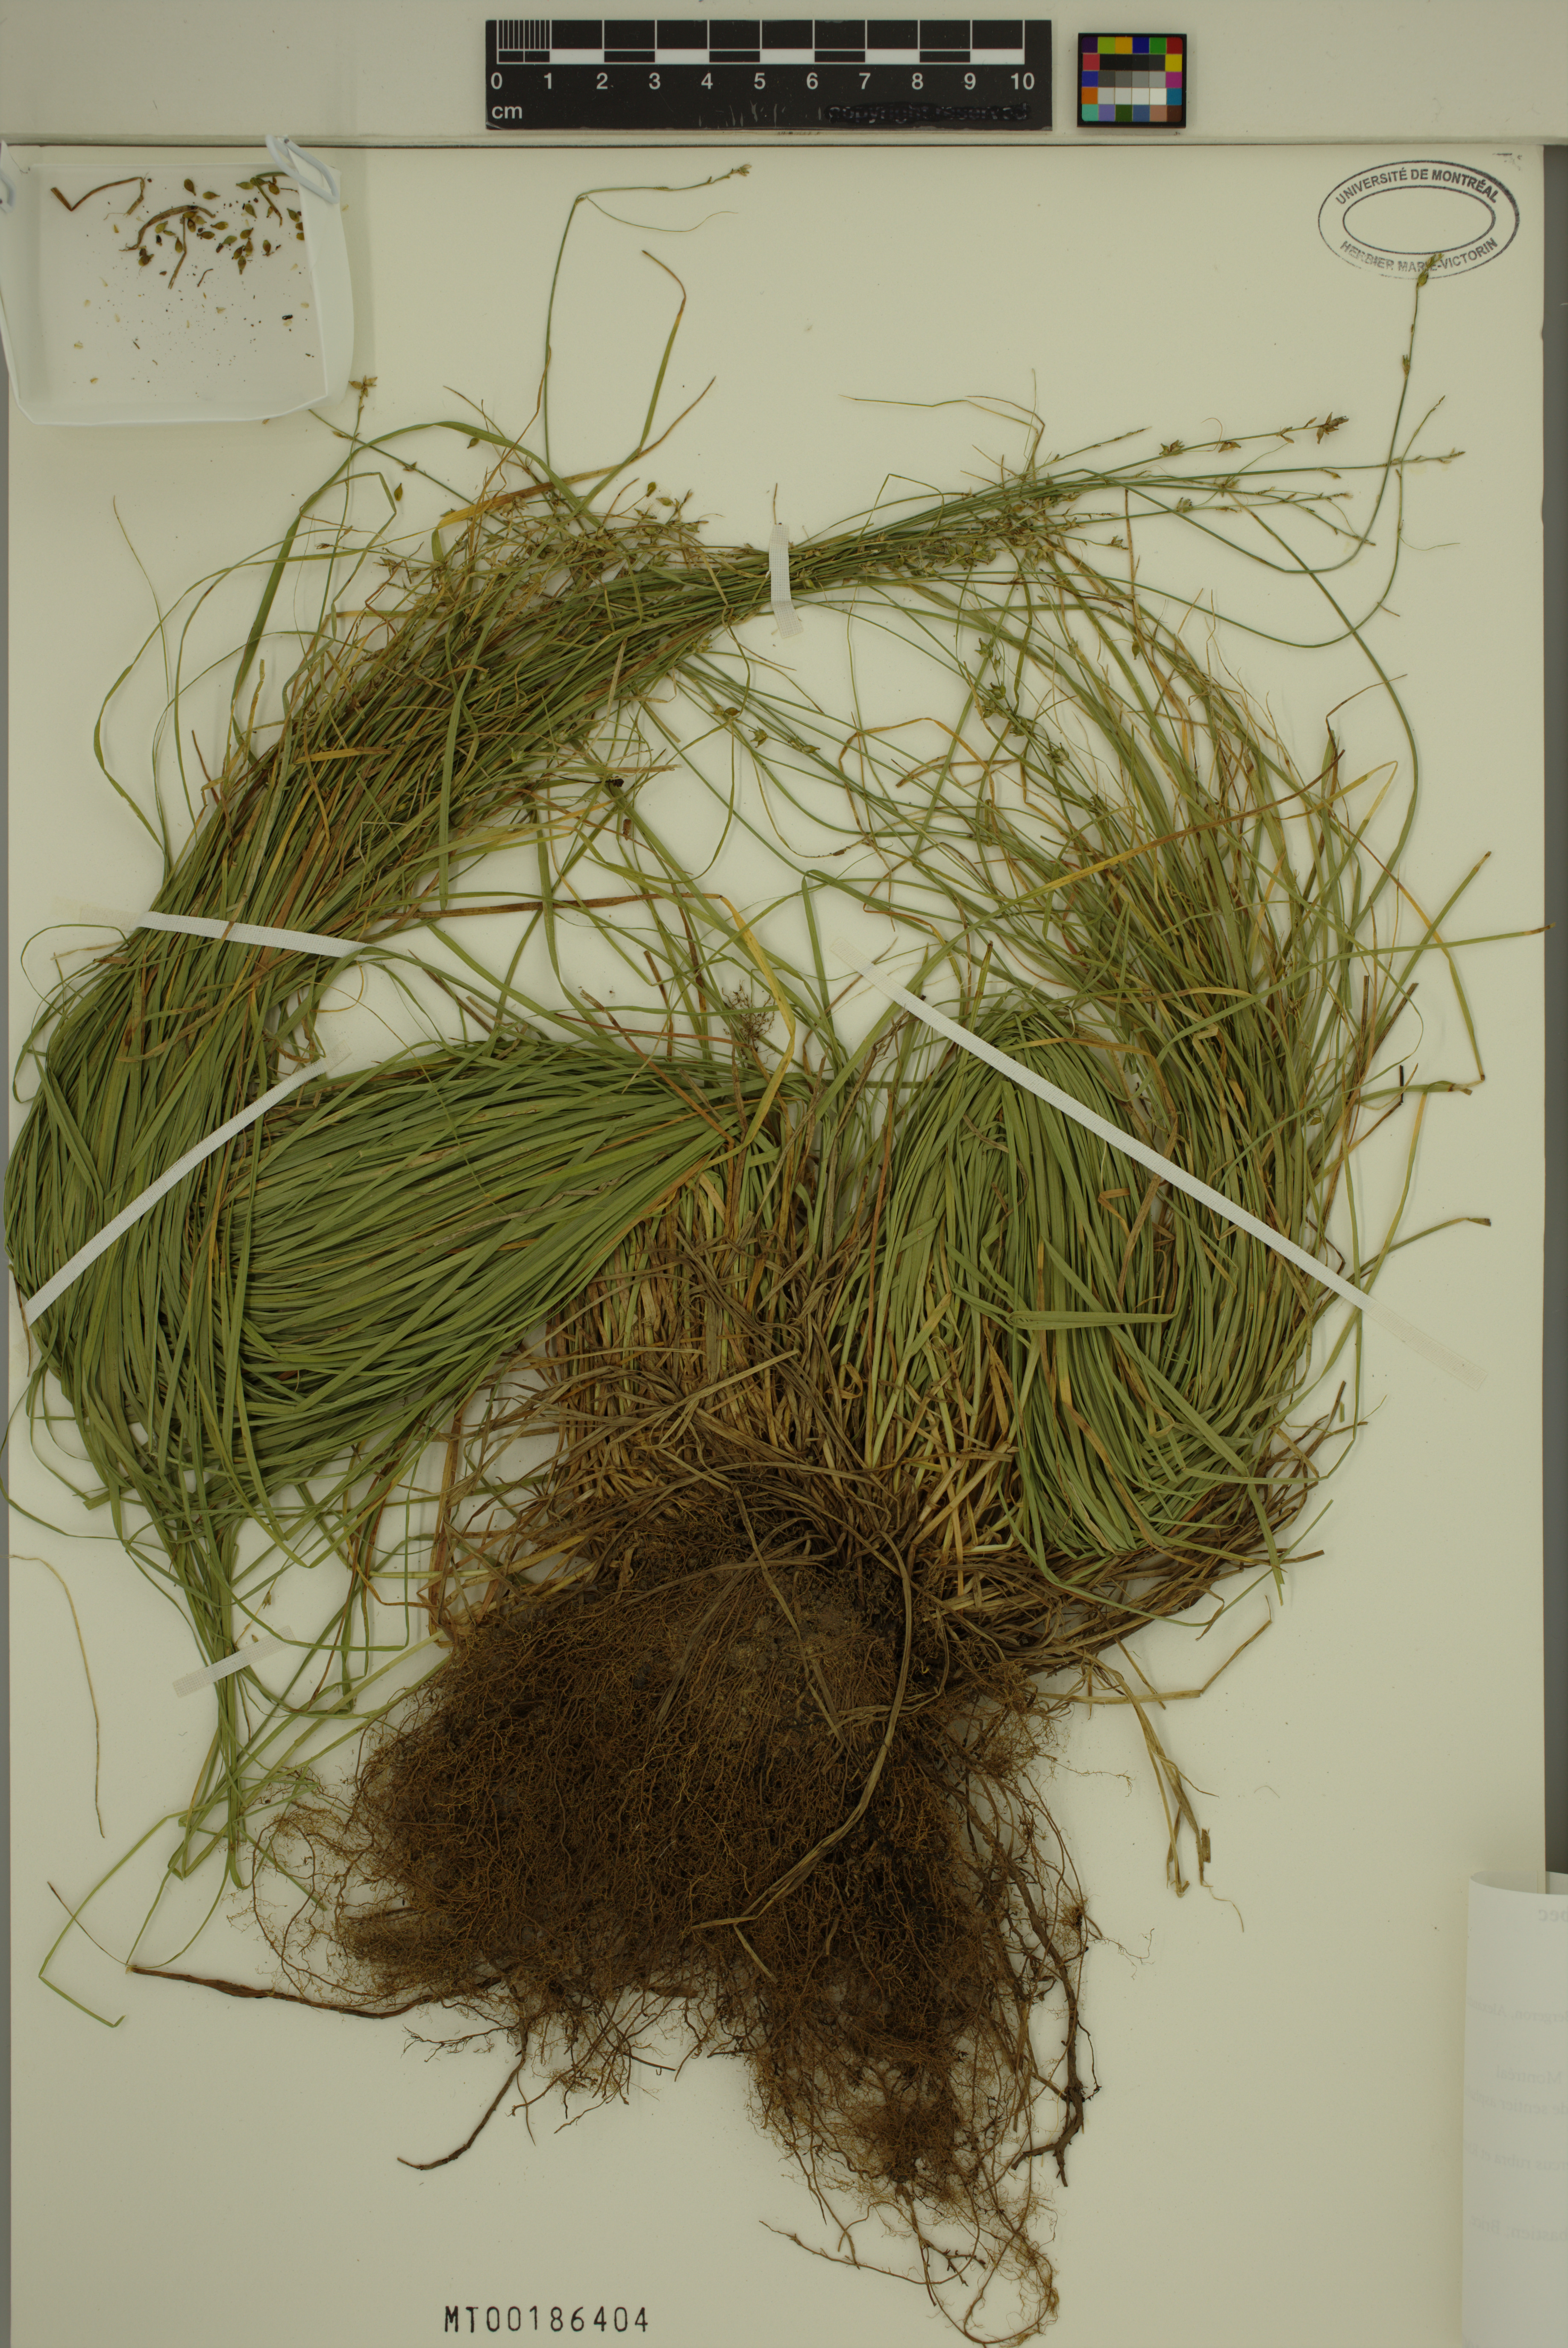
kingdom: Plantae
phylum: Tracheophyta
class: Liliopsida
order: Poales
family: Cyperaceae
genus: Carex
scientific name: Carex rosea
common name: Curly-styled wood sedge
